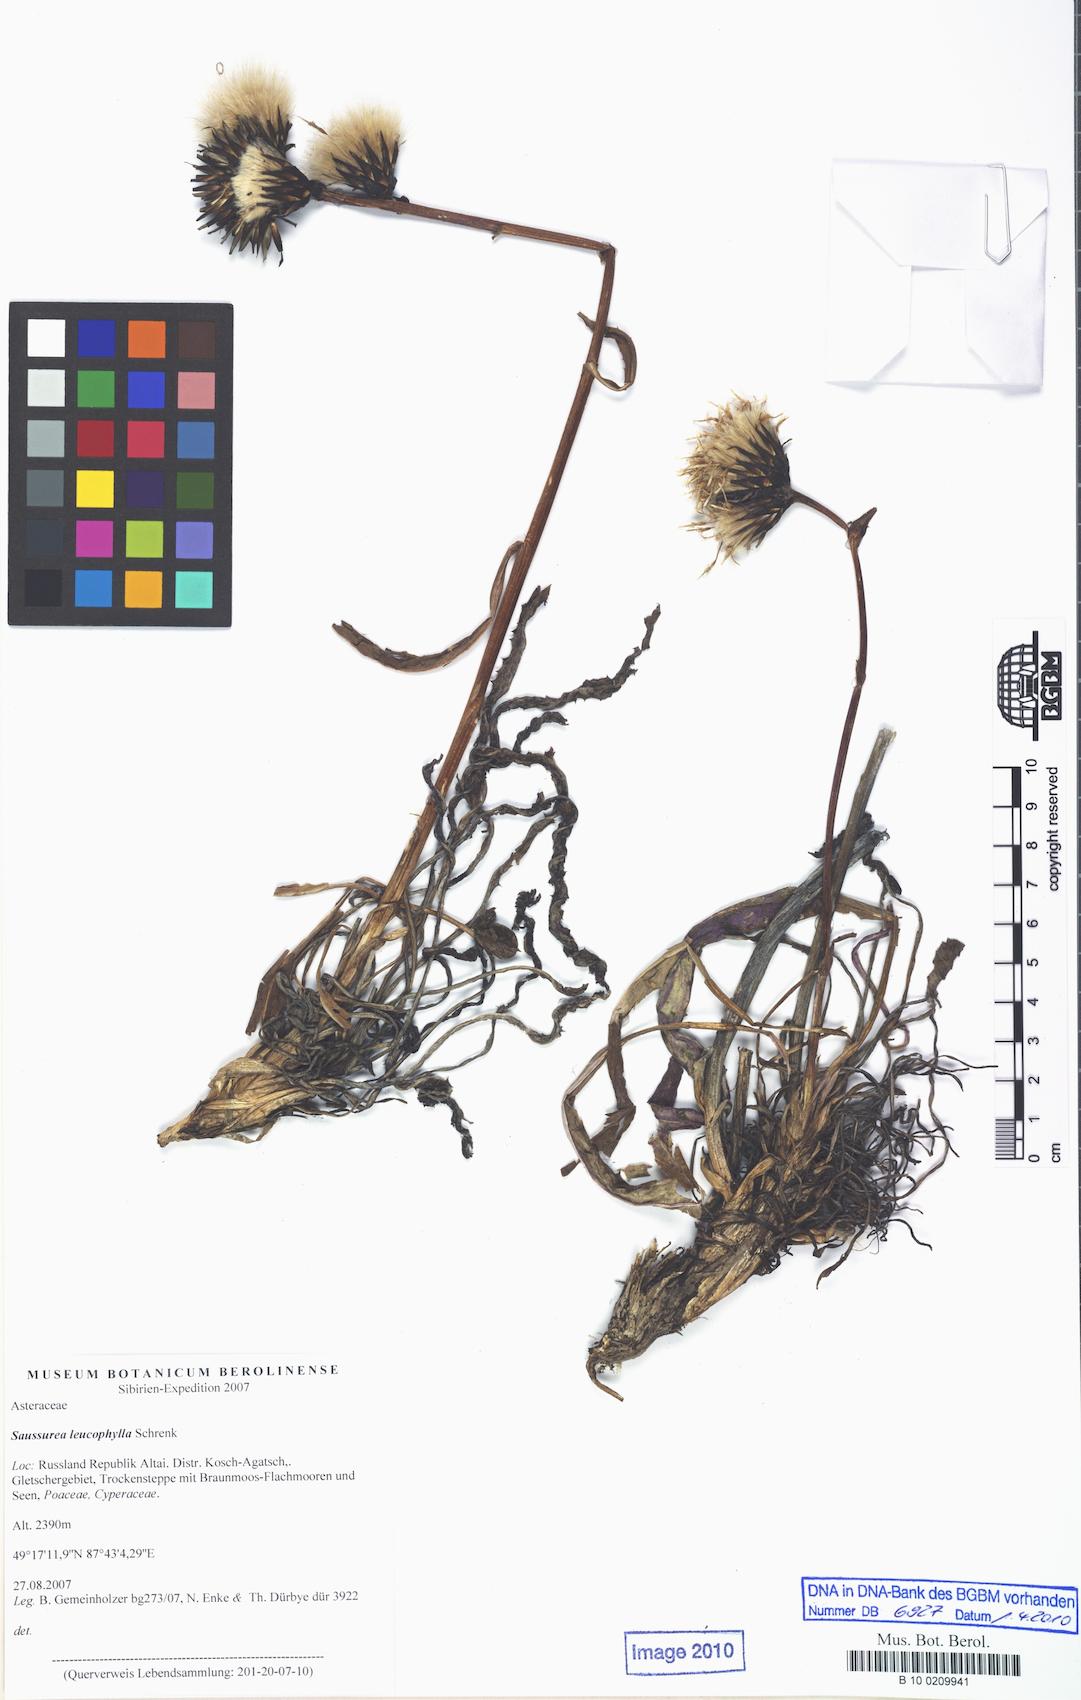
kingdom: Plantae
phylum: Tracheophyta
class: Magnoliopsida
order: Asterales
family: Asteraceae
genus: Saussurea
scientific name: Saussurea krylovii
